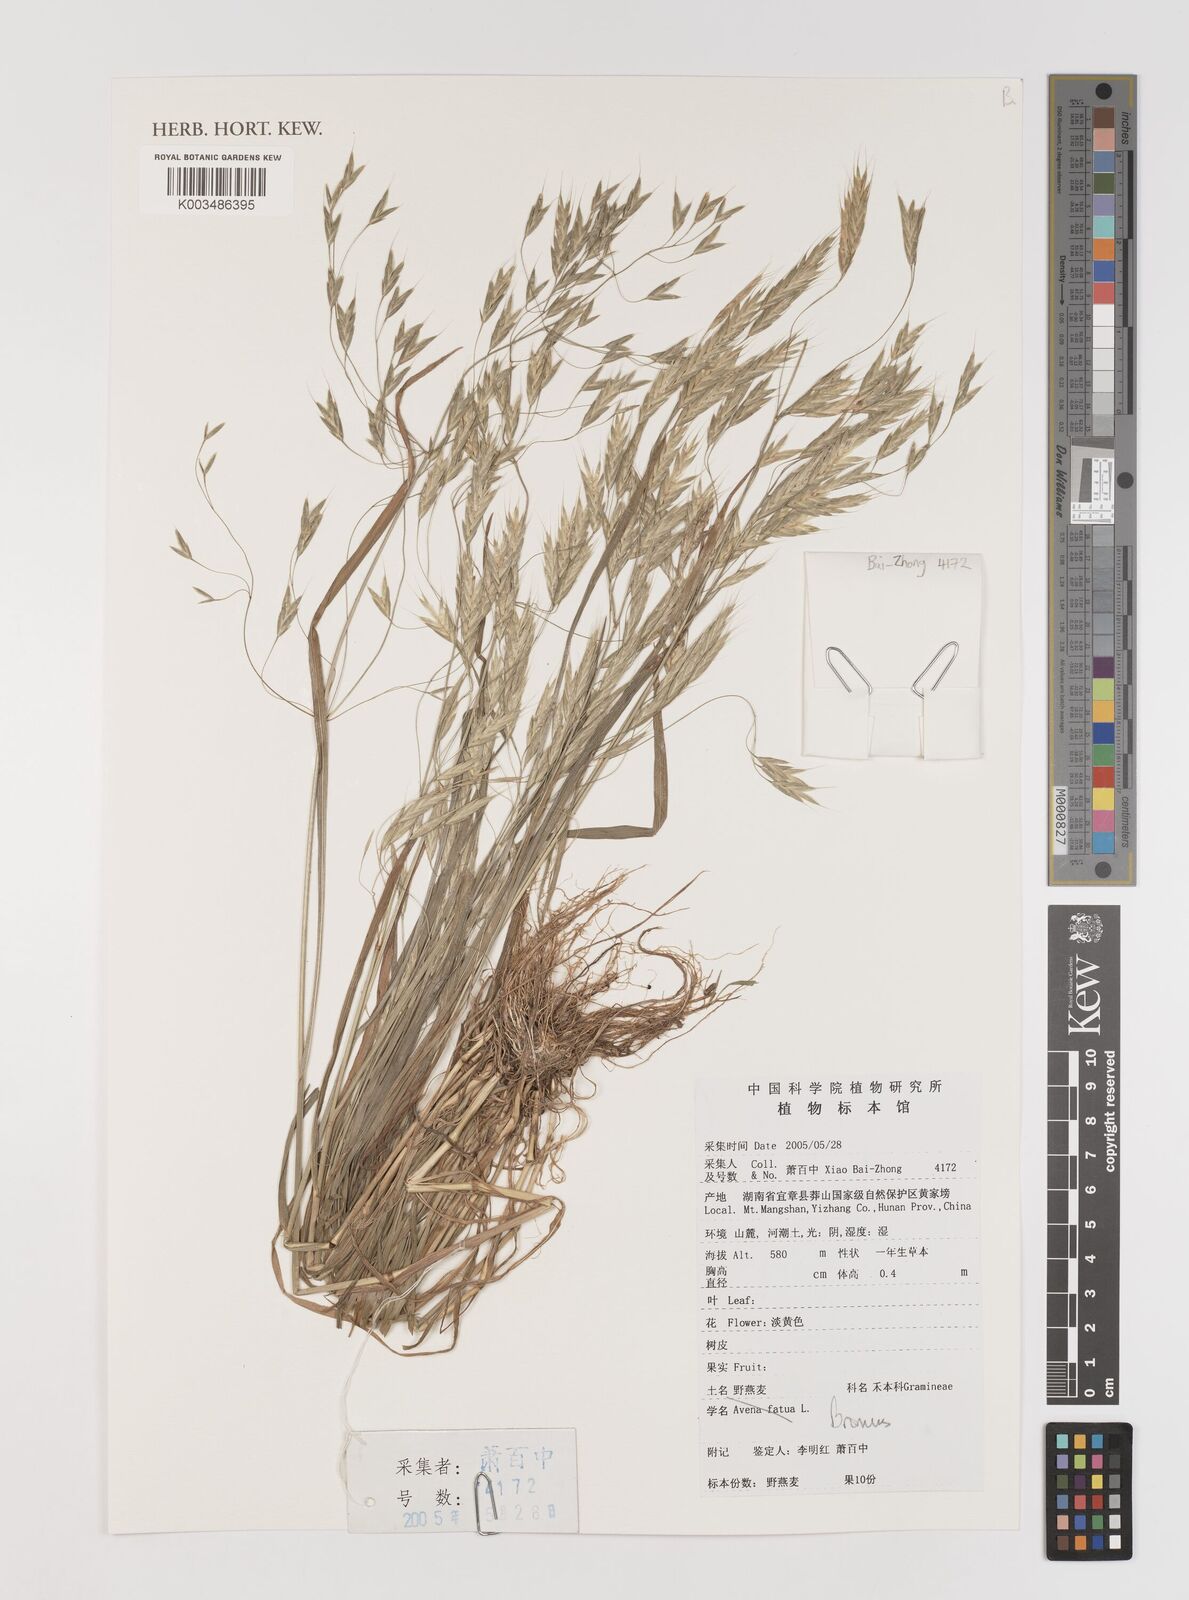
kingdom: Plantae
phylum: Tracheophyta
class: Liliopsida
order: Poales
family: Poaceae
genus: Bromus
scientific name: Bromus
